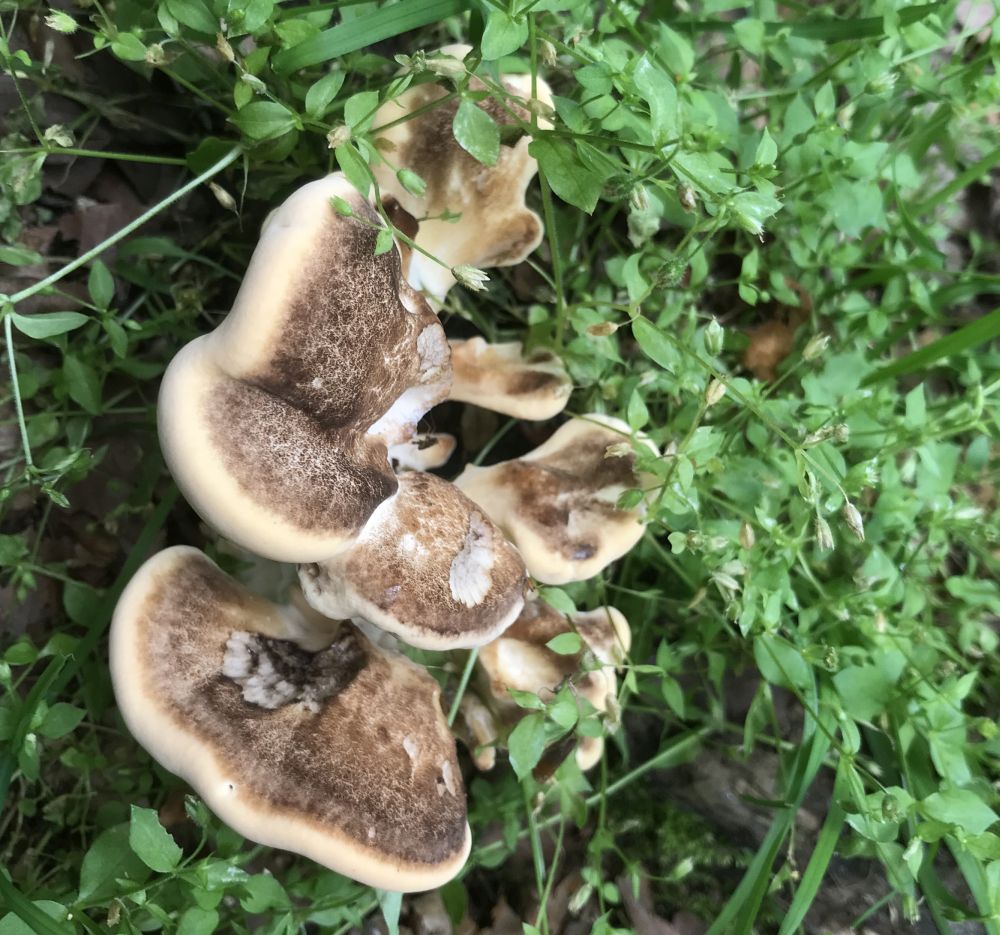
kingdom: Fungi
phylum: Basidiomycota
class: Agaricomycetes
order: Polyporales
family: Meripilaceae
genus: Meripilus
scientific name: Meripilus giganteus
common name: kæmpeporesvamp
